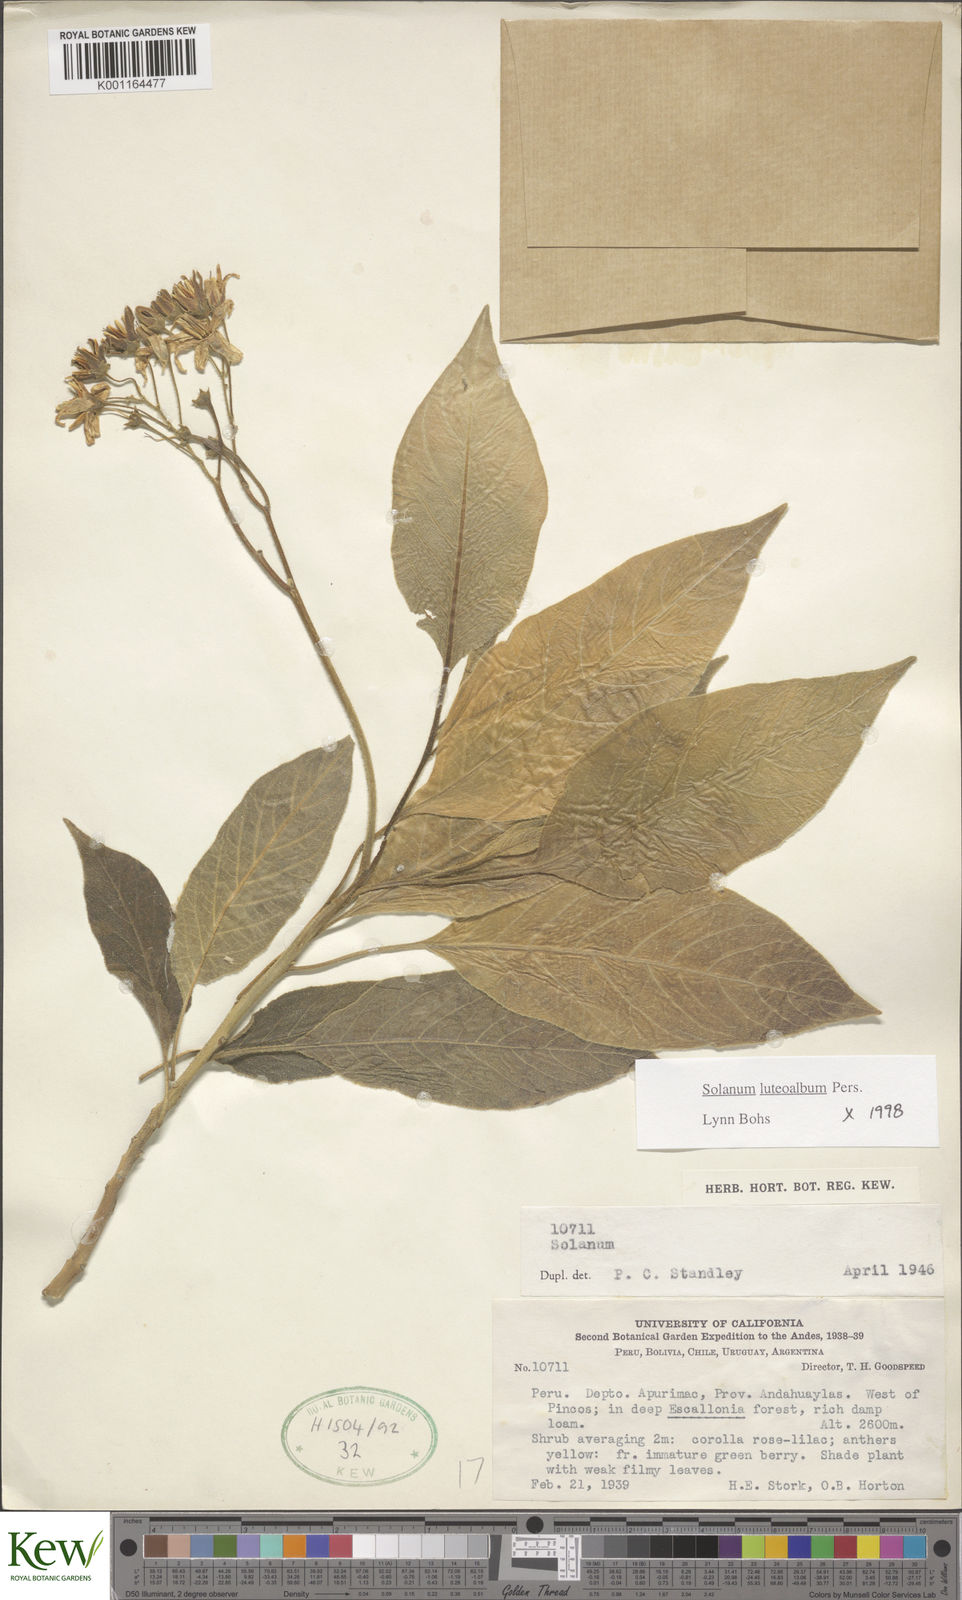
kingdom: Plantae
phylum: Tracheophyta
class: Magnoliopsida
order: Solanales
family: Solanaceae
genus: Solanum
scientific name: Solanum luteoalbum
